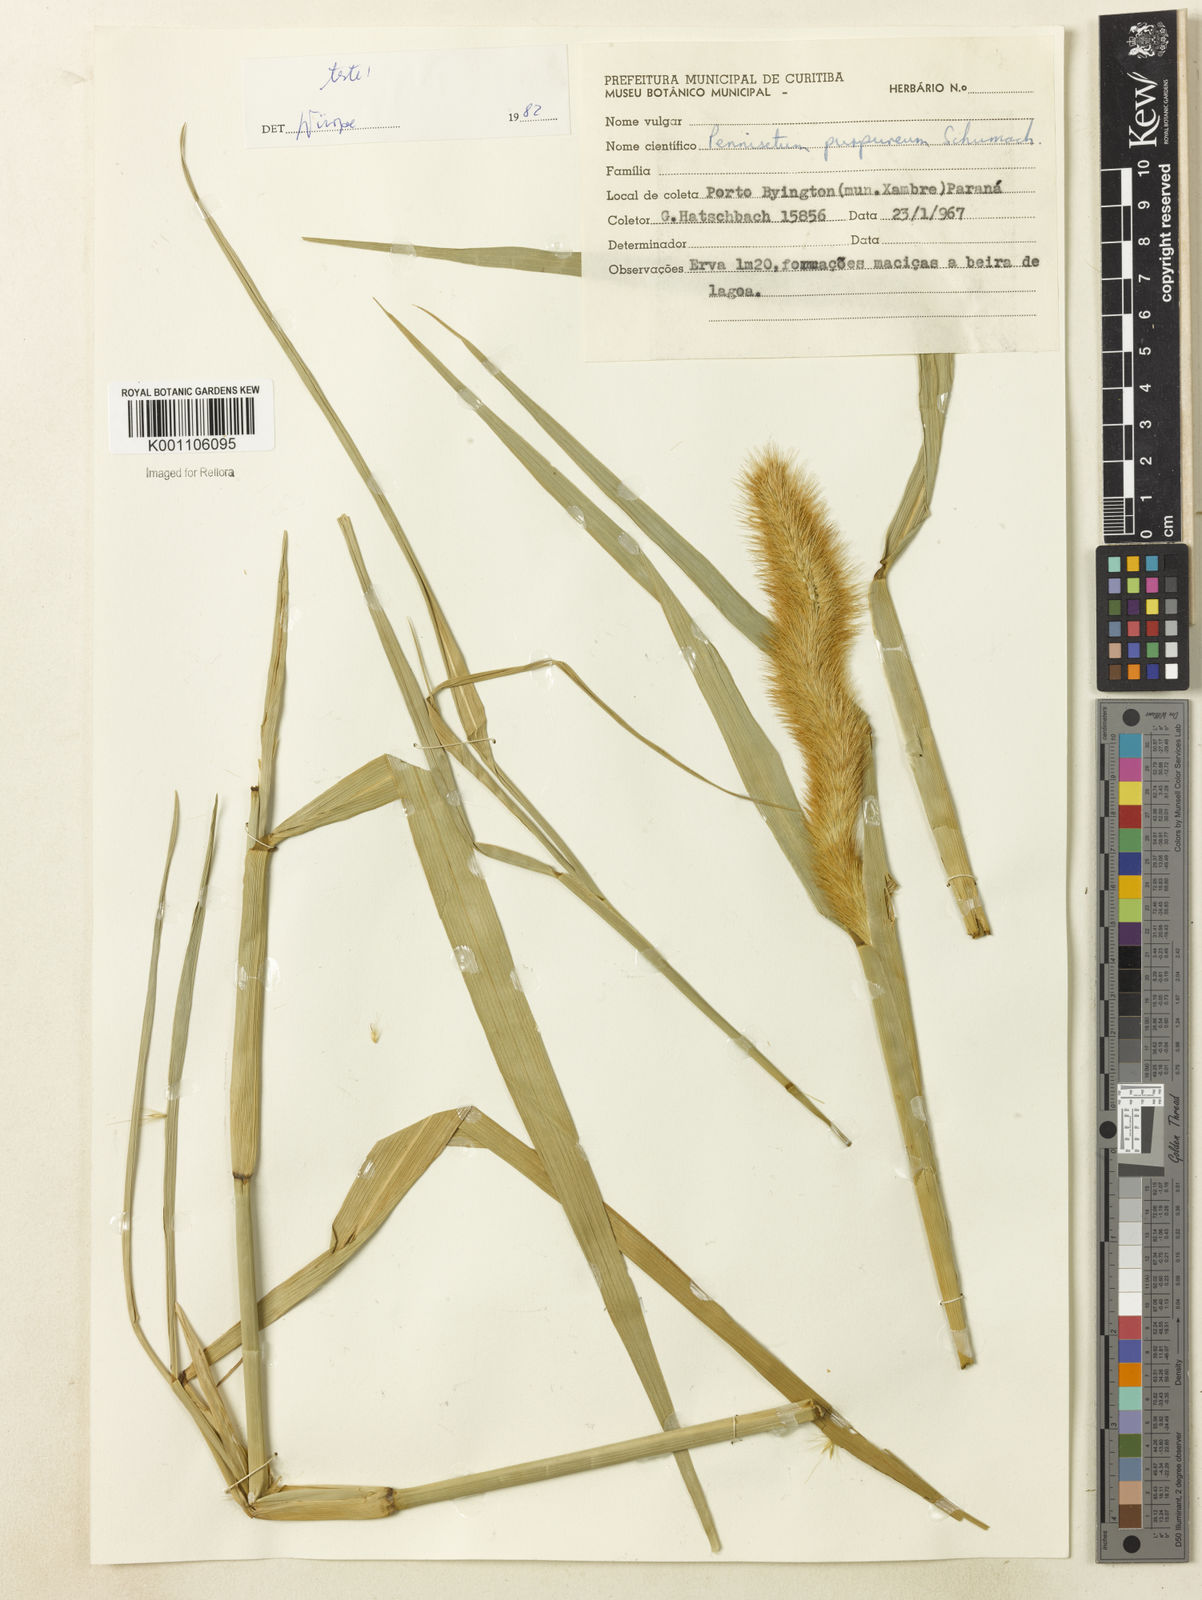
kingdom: Plantae
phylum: Tracheophyta
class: Liliopsida
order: Poales
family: Poaceae
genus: Cenchrus
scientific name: Cenchrus purpureus
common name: Elephant grass
